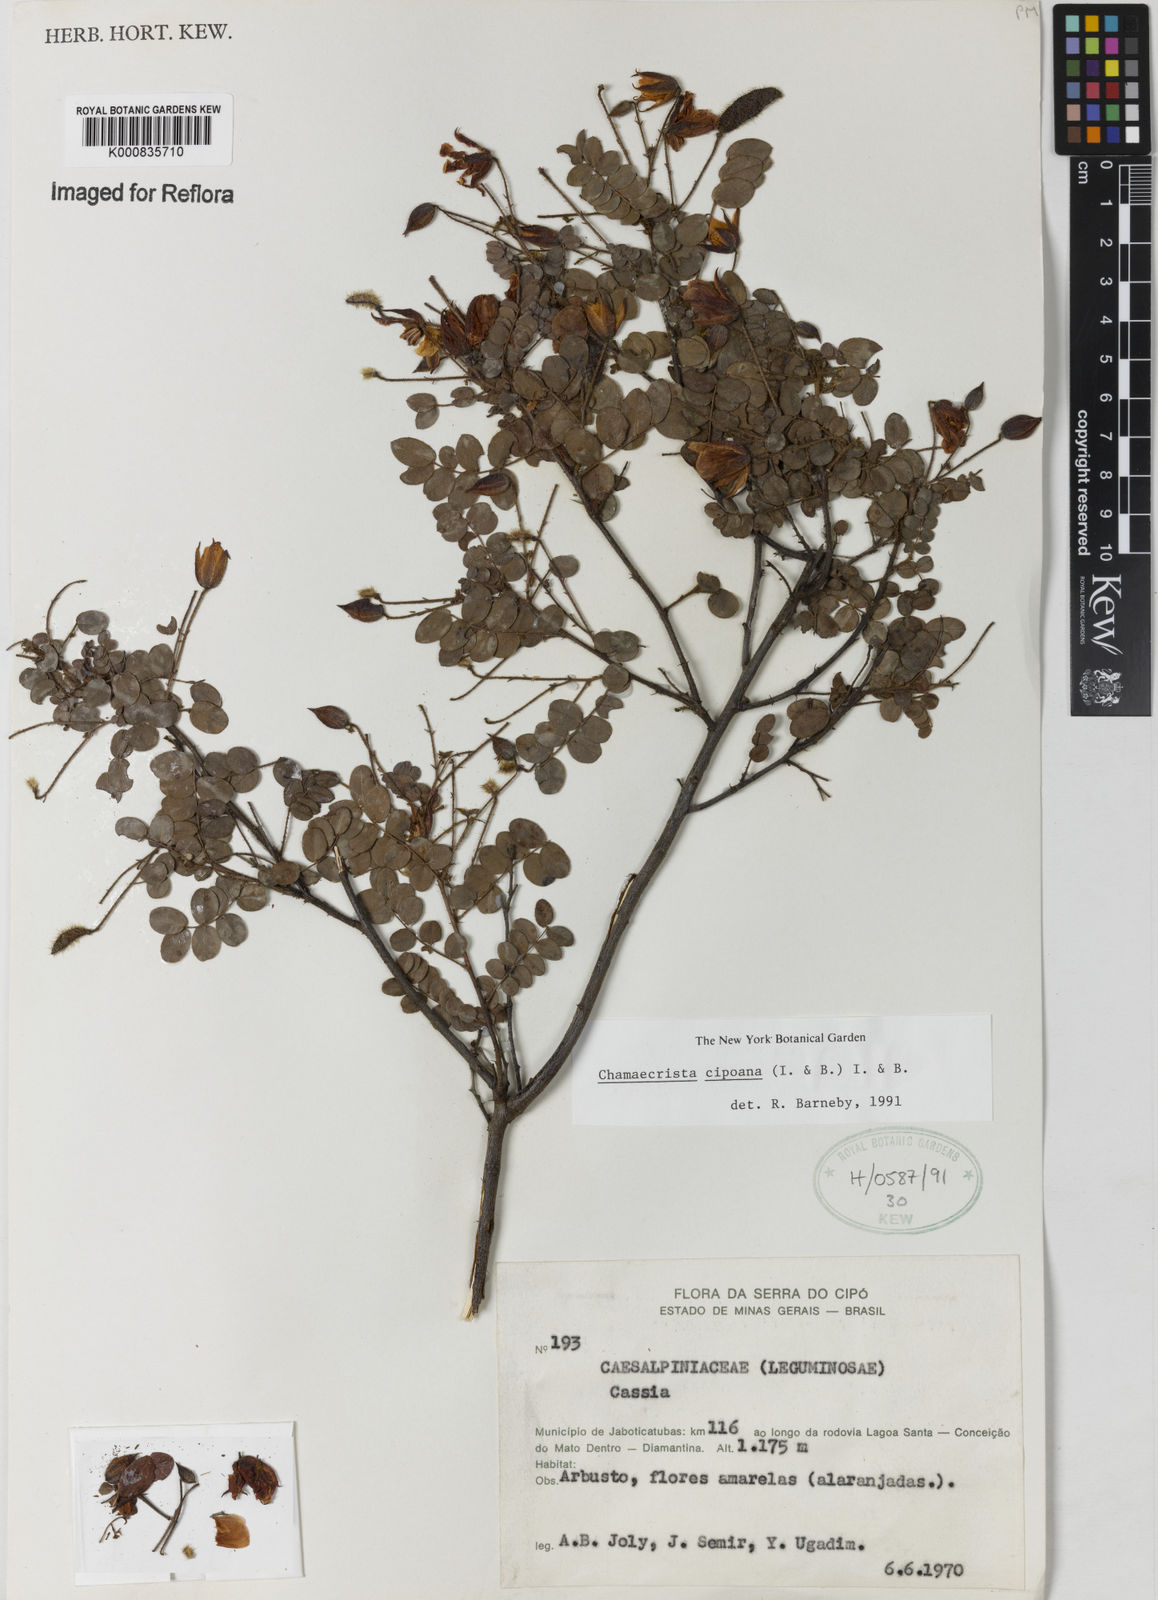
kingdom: Plantae
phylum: Tracheophyta
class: Magnoliopsida
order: Fabales
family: Fabaceae
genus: Chamaecrista
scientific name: Chamaecrista multipennis
